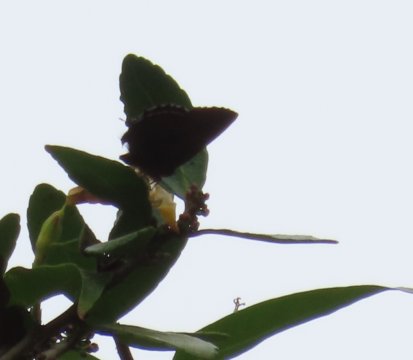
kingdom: Animalia
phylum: Arthropoda
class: Insecta
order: Lepidoptera
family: Lycaenidae
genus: Incisalia
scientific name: Incisalia henrici
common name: Henry's Elfin
